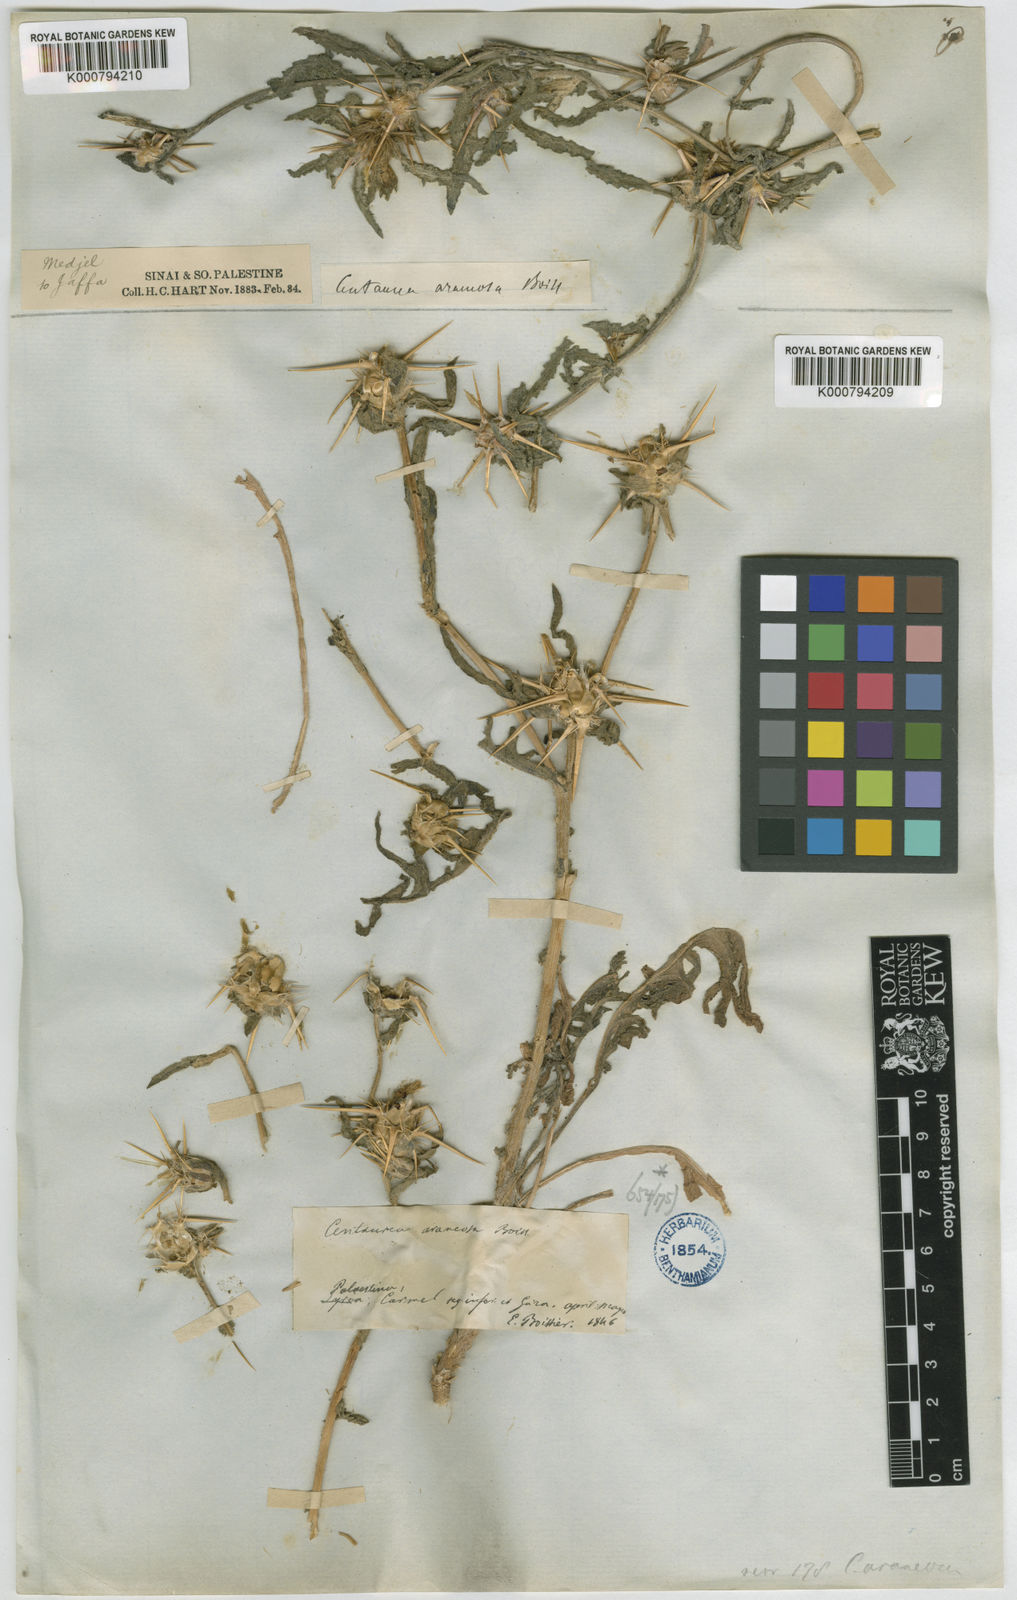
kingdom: Plantae
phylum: Tracheophyta
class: Magnoliopsida
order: Asterales
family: Asteraceae
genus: Centaurea
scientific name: Centaurea jordaniana
